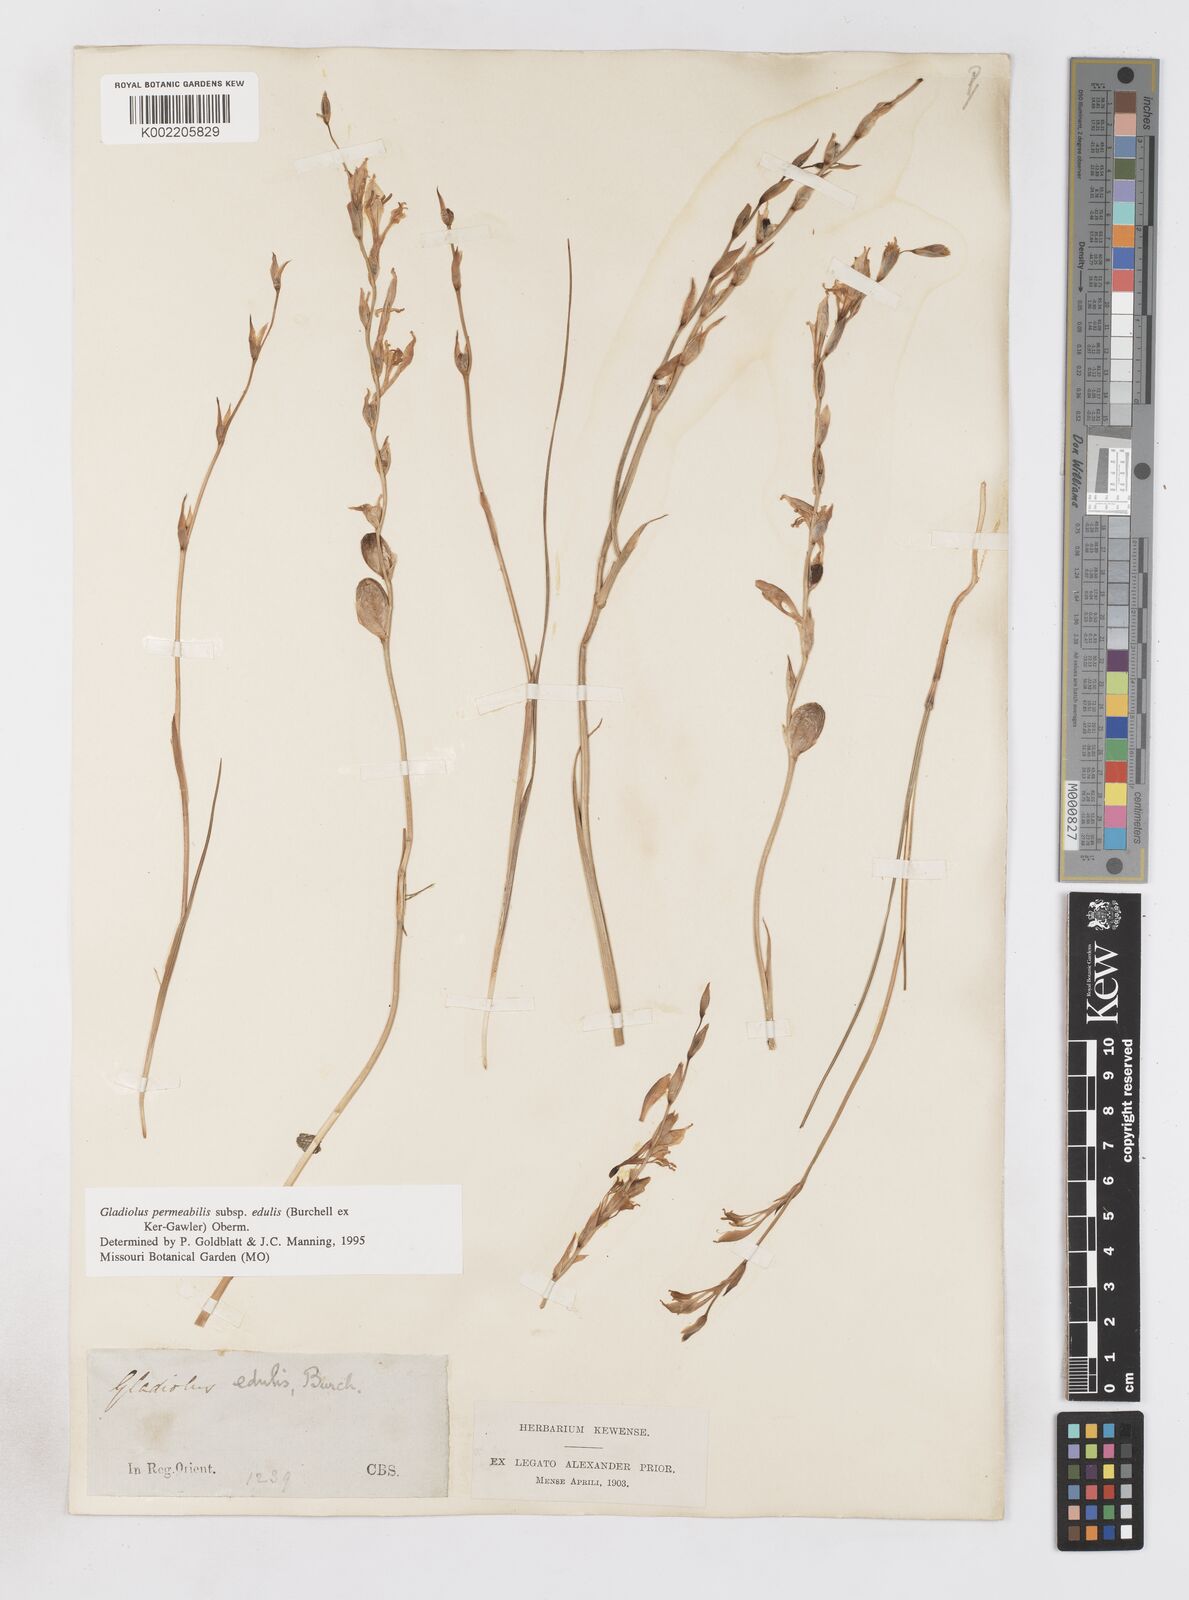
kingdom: Plantae
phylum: Tracheophyta
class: Liliopsida
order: Asparagales
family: Iridaceae
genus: Gladiolus
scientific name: Gladiolus permeabilis
